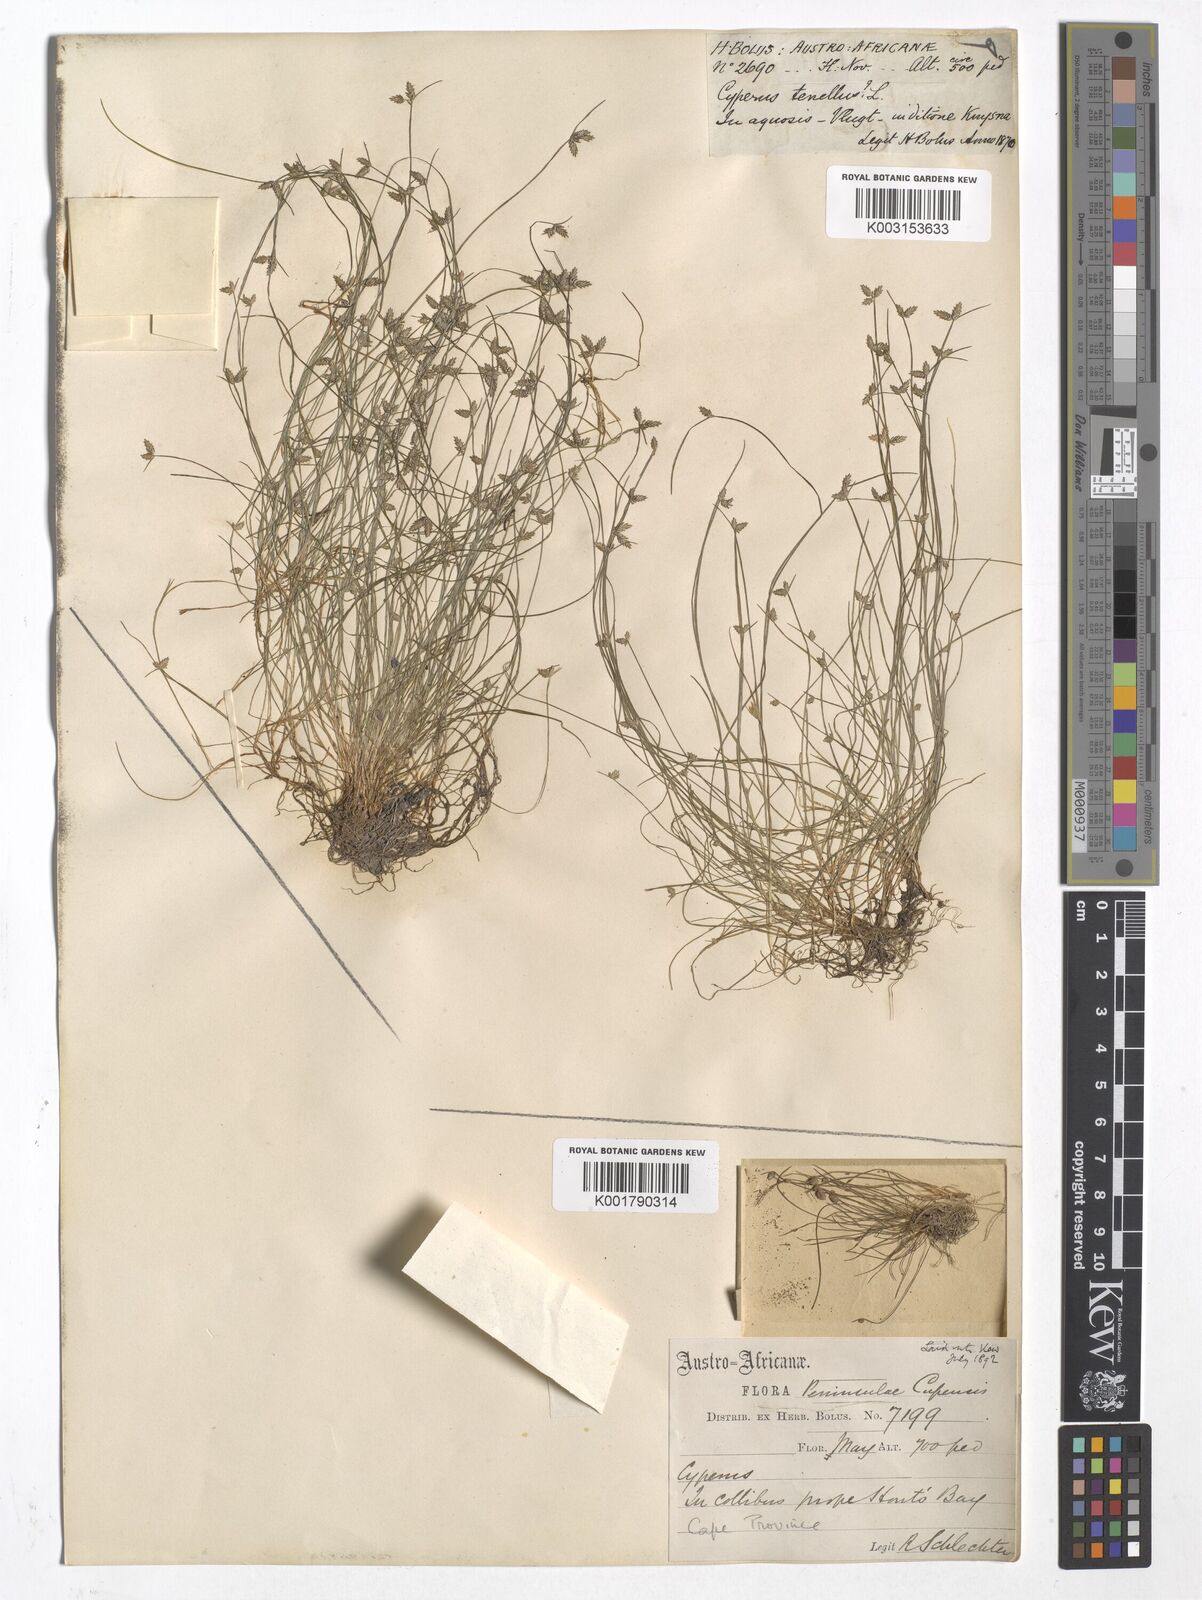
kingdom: Plantae
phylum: Tracheophyta
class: Liliopsida
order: Poales
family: Cyperaceae
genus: Isolepis
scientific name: Isolepis levynsiana
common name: Sedge
